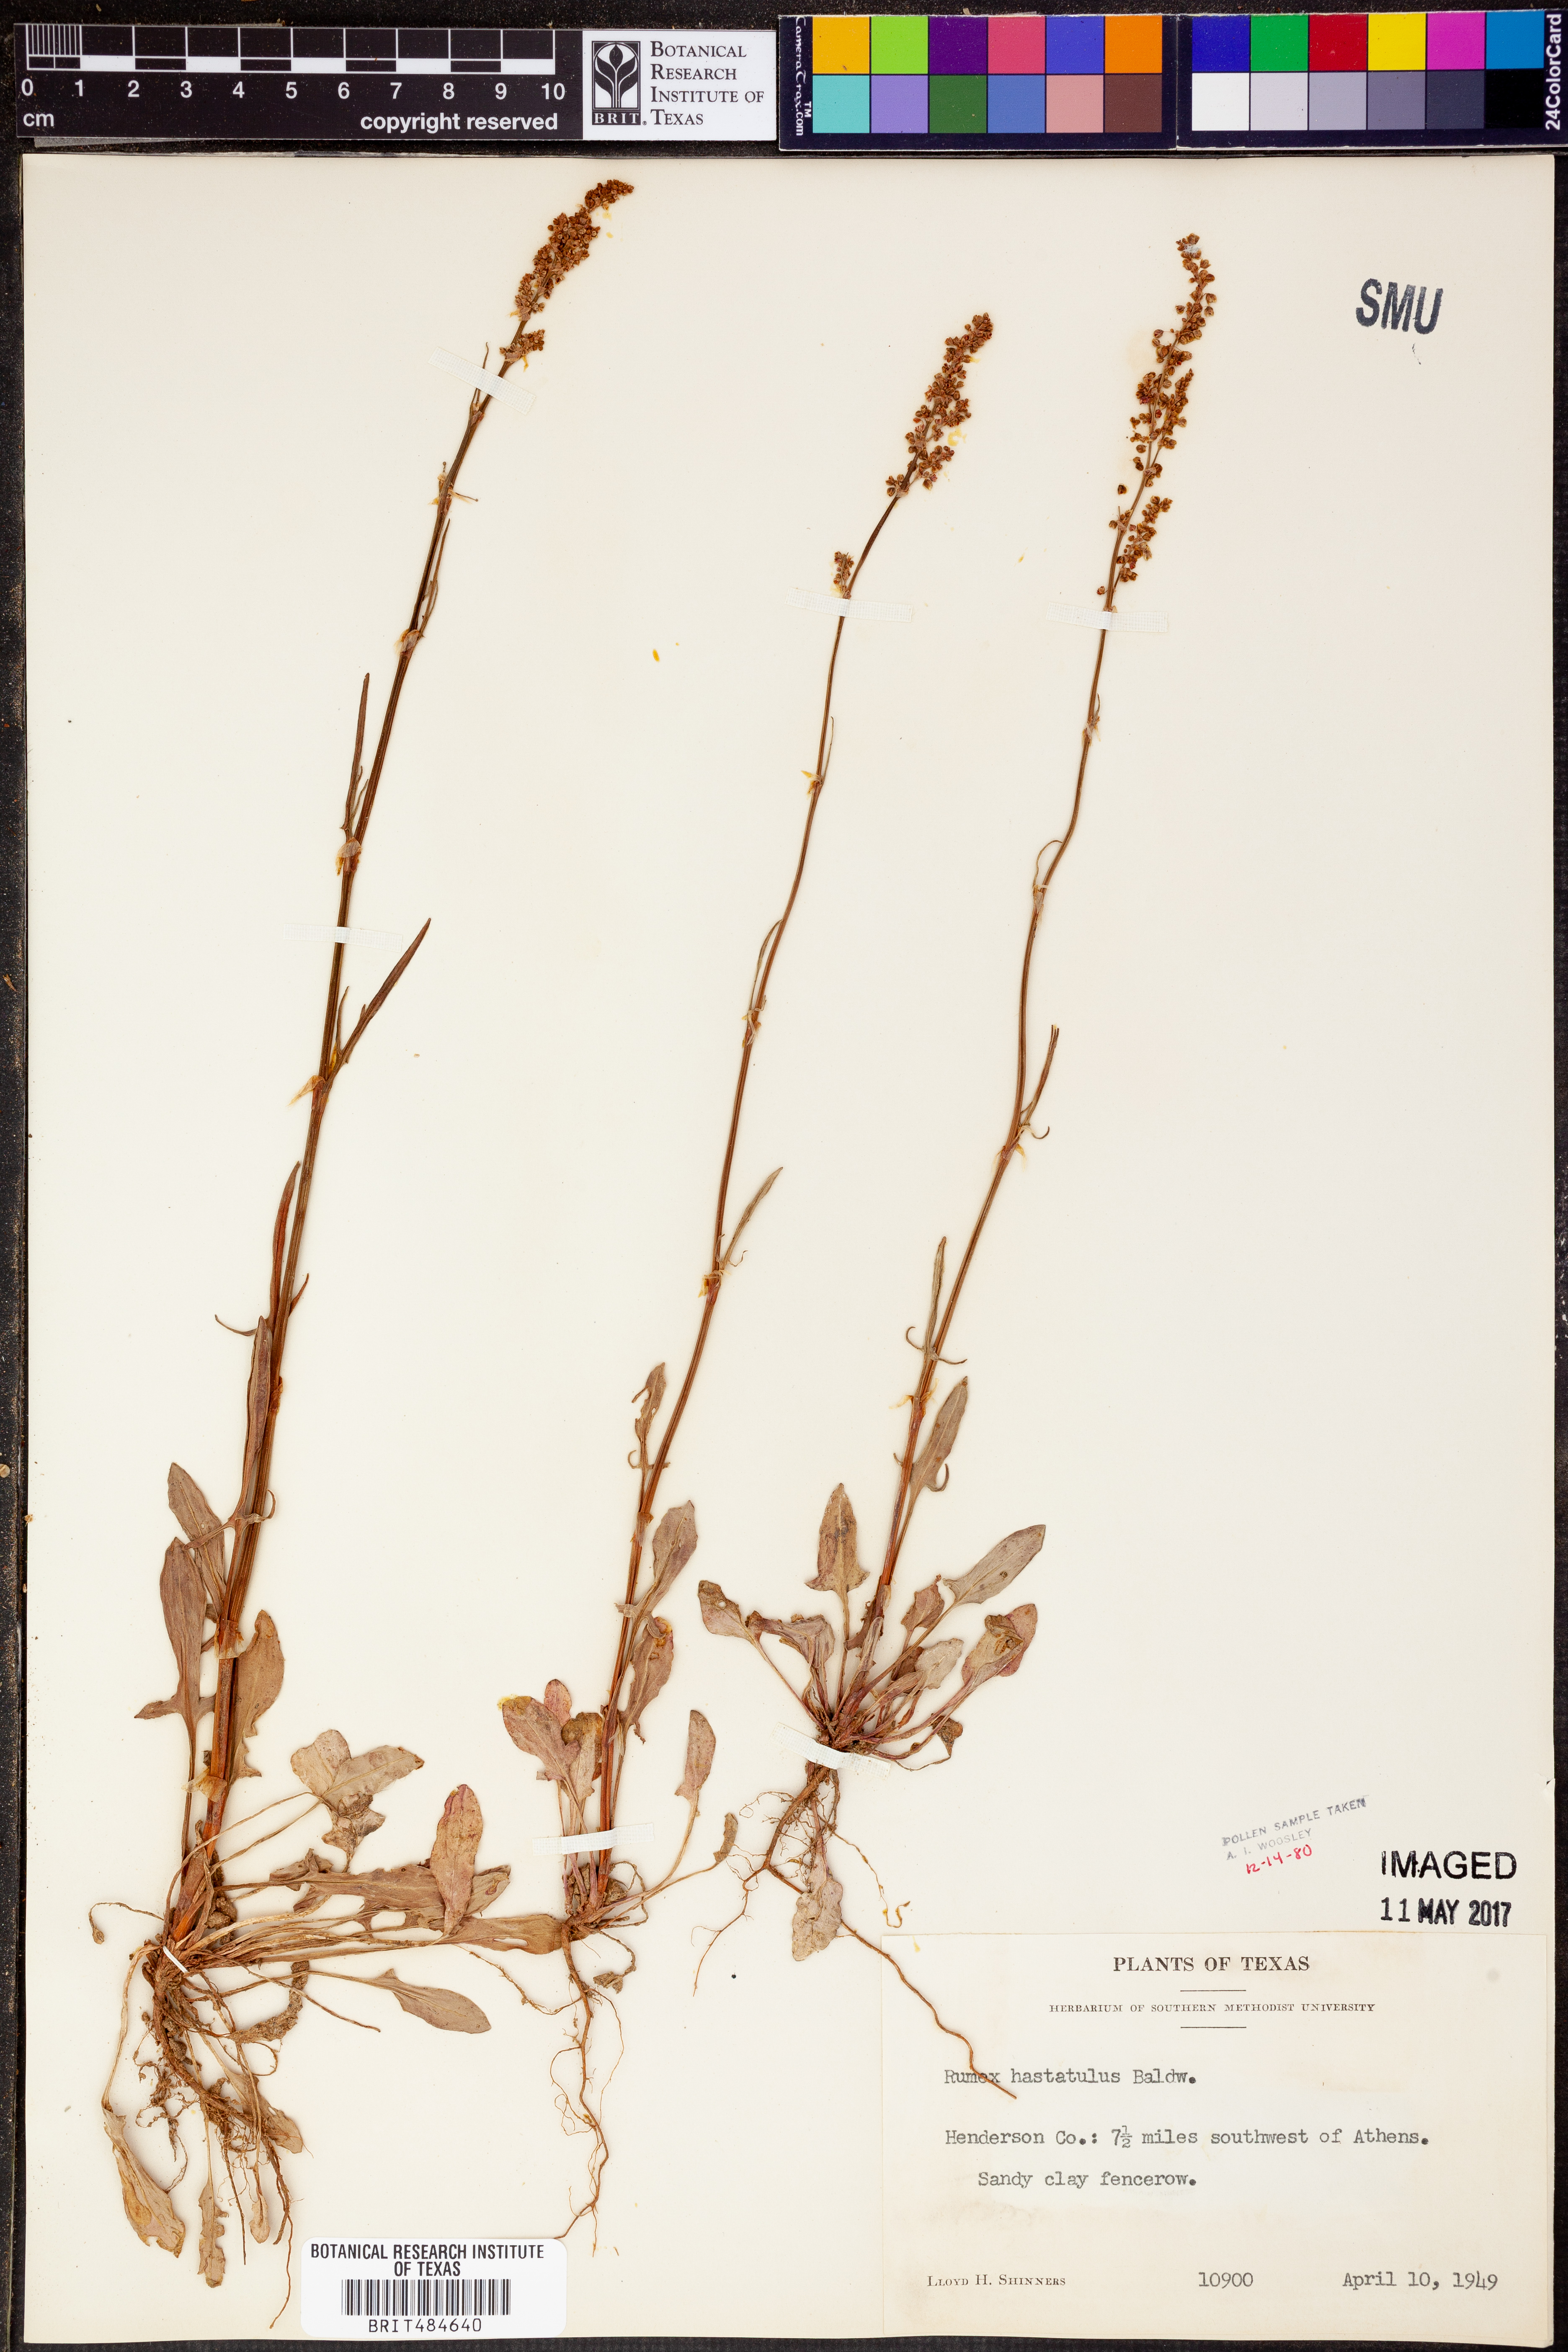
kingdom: Plantae
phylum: Tracheophyta
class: Magnoliopsida
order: Caryophyllales
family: Polygonaceae
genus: Rumex
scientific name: Rumex hastatulus
